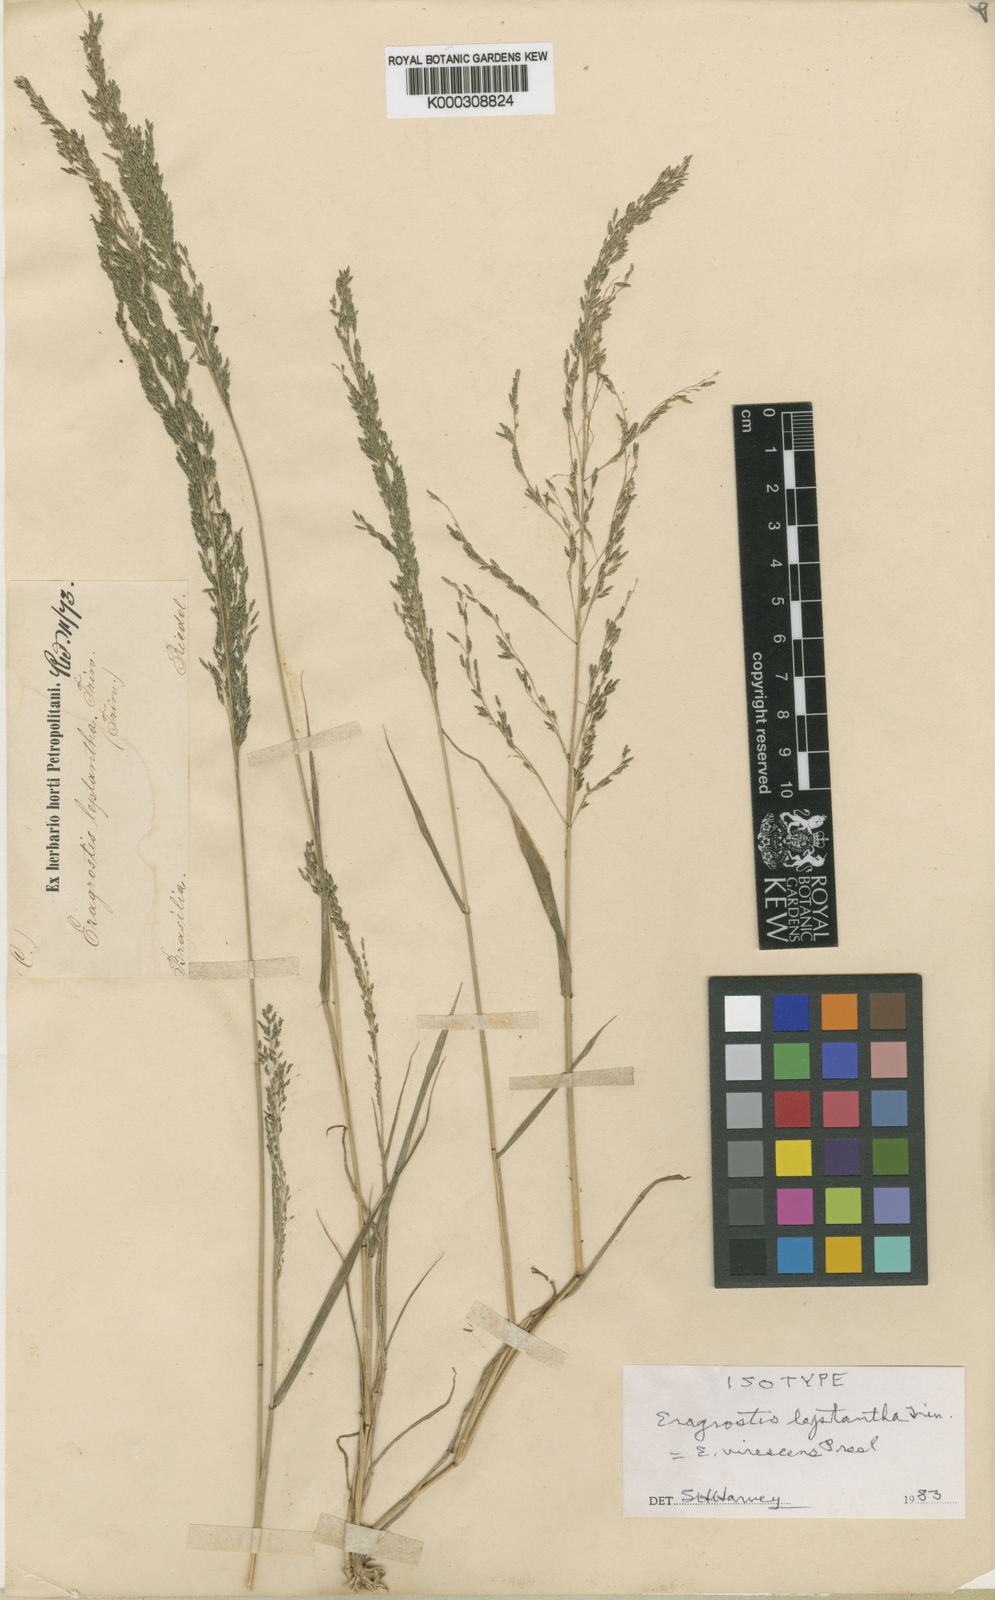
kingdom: Plantae
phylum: Tracheophyta
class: Liliopsida
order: Poales
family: Poaceae
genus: Eragrostis
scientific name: Eragrostis mexicana
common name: Mexican love grass
